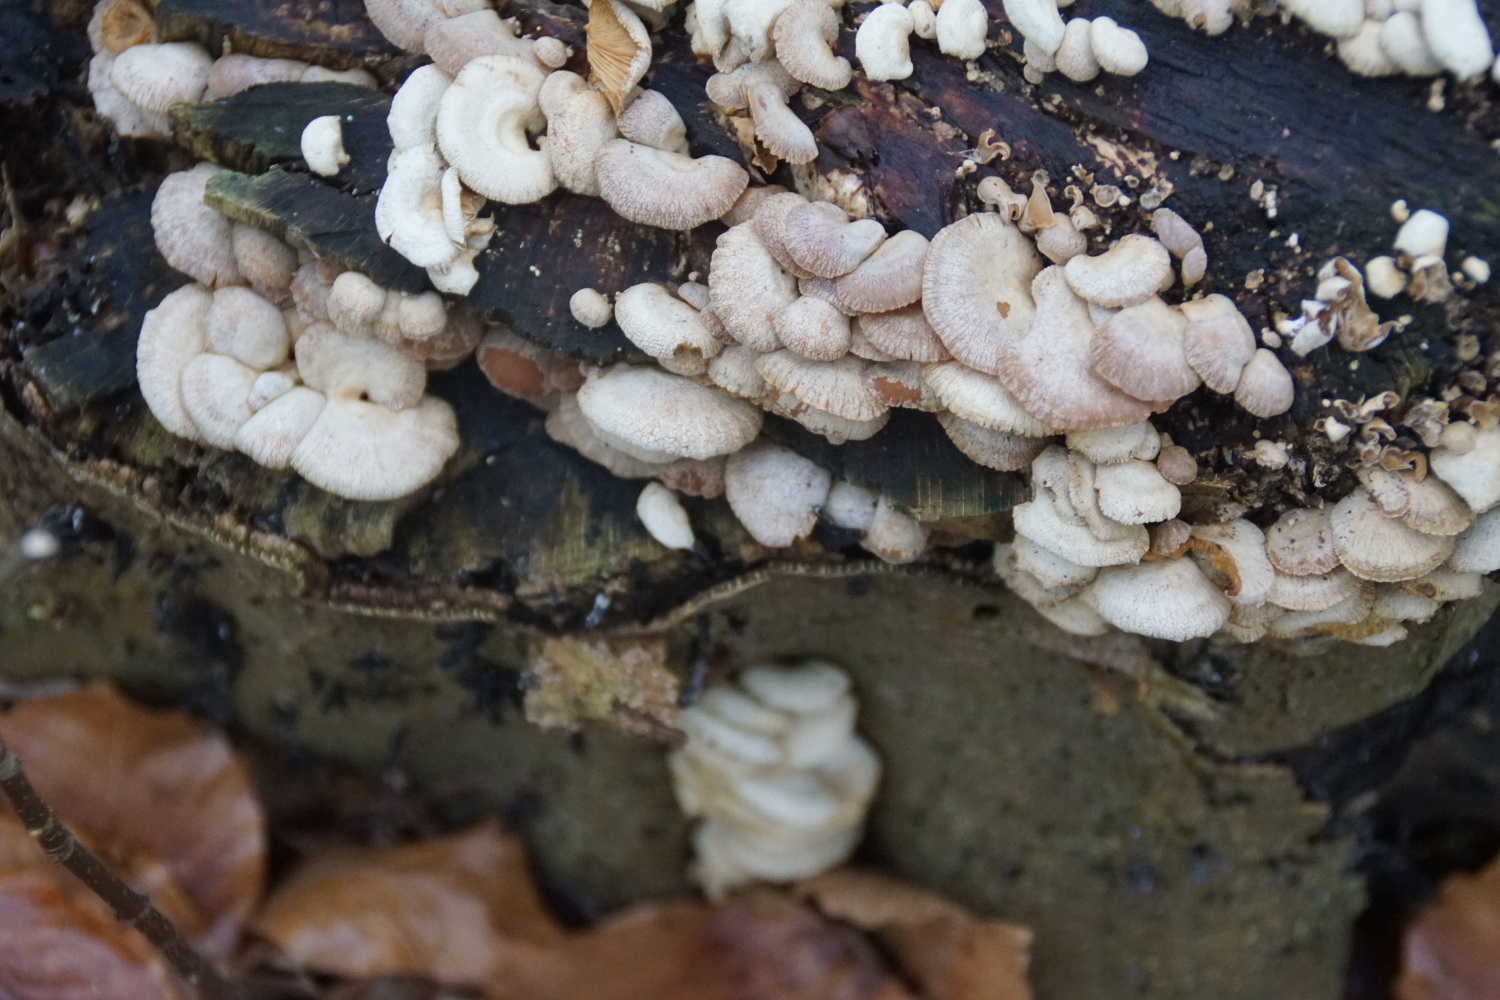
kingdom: Fungi
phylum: Basidiomycota
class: Agaricomycetes
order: Agaricales
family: Mycenaceae
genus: Panellus
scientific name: Panellus stipticus
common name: kliddet epaulethat
